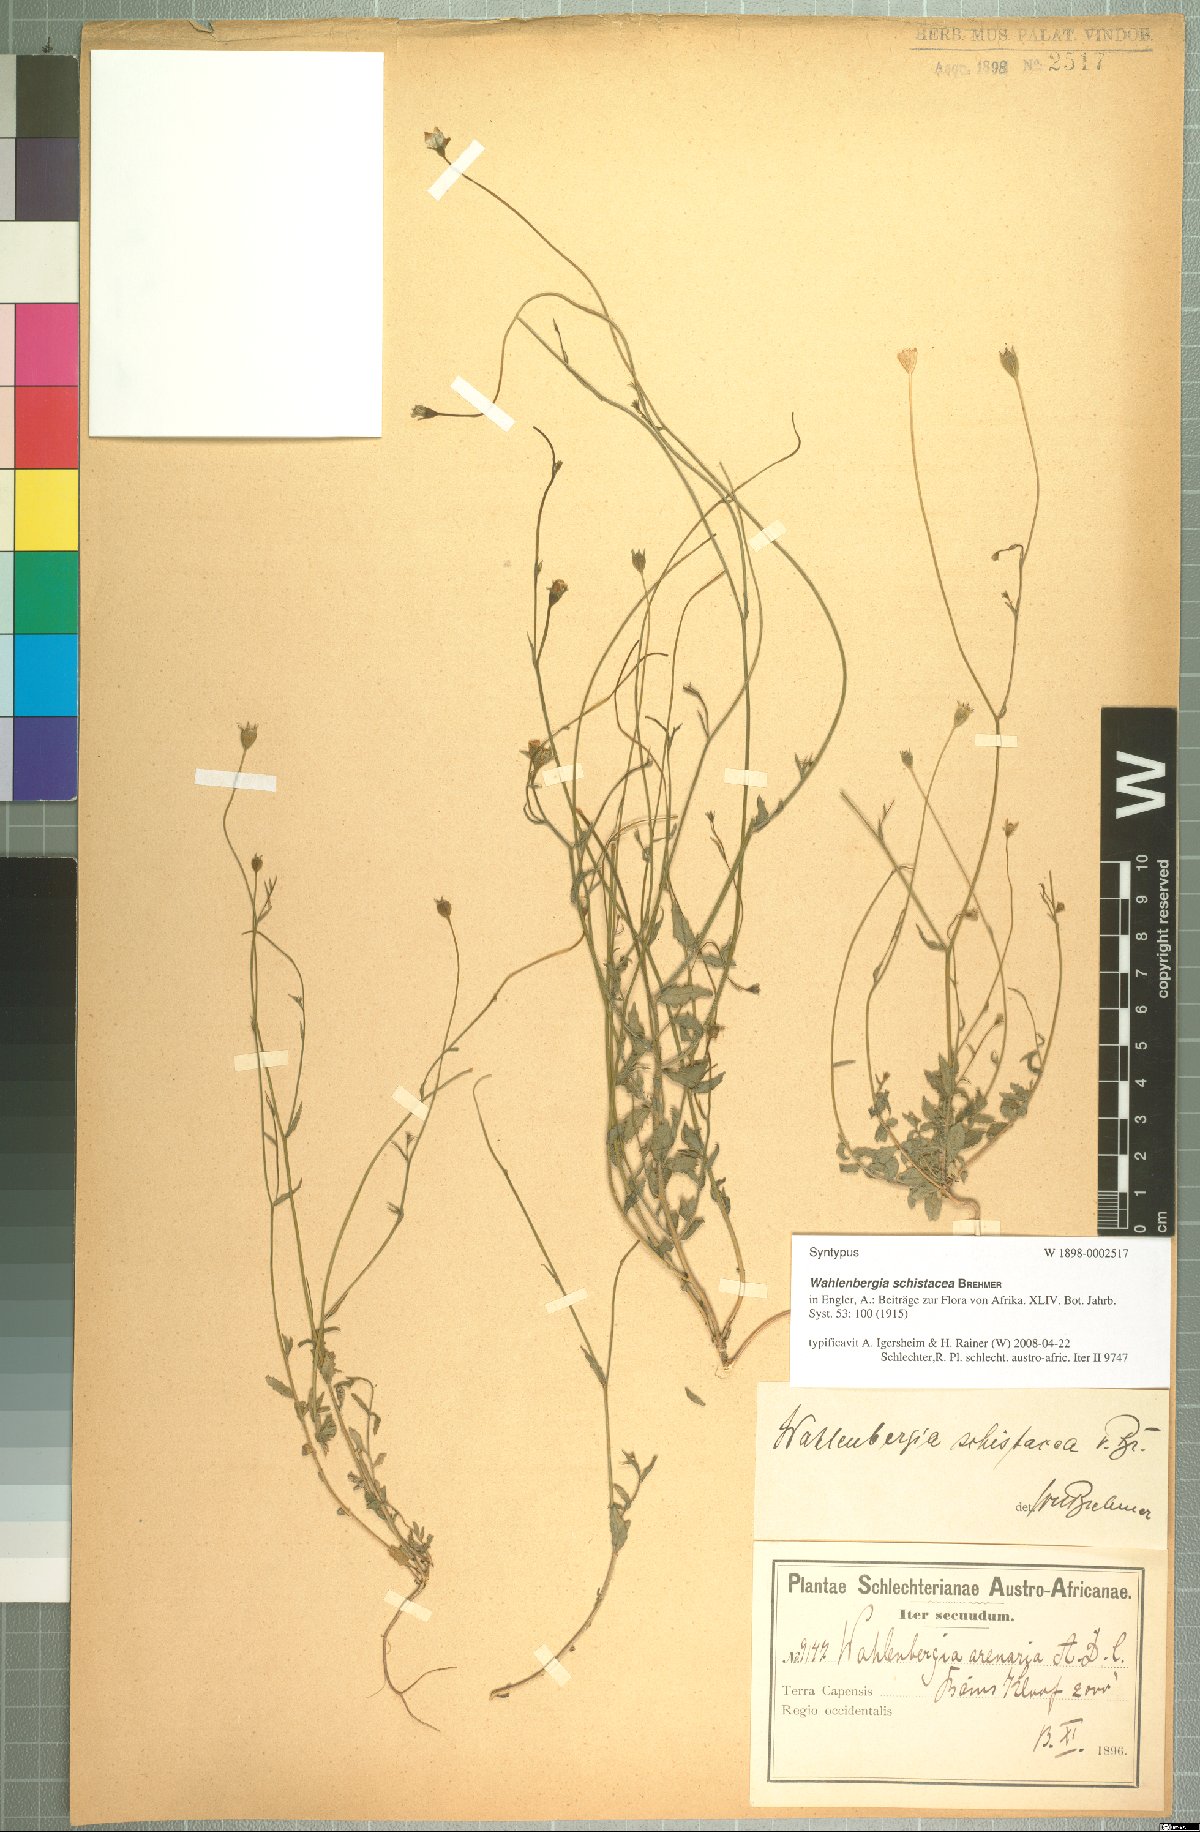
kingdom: Plantae
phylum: Tracheophyta
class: Magnoliopsida
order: Asterales
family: Campanulaceae
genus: Wahlenbergia
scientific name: Wahlenbergia schistacea
